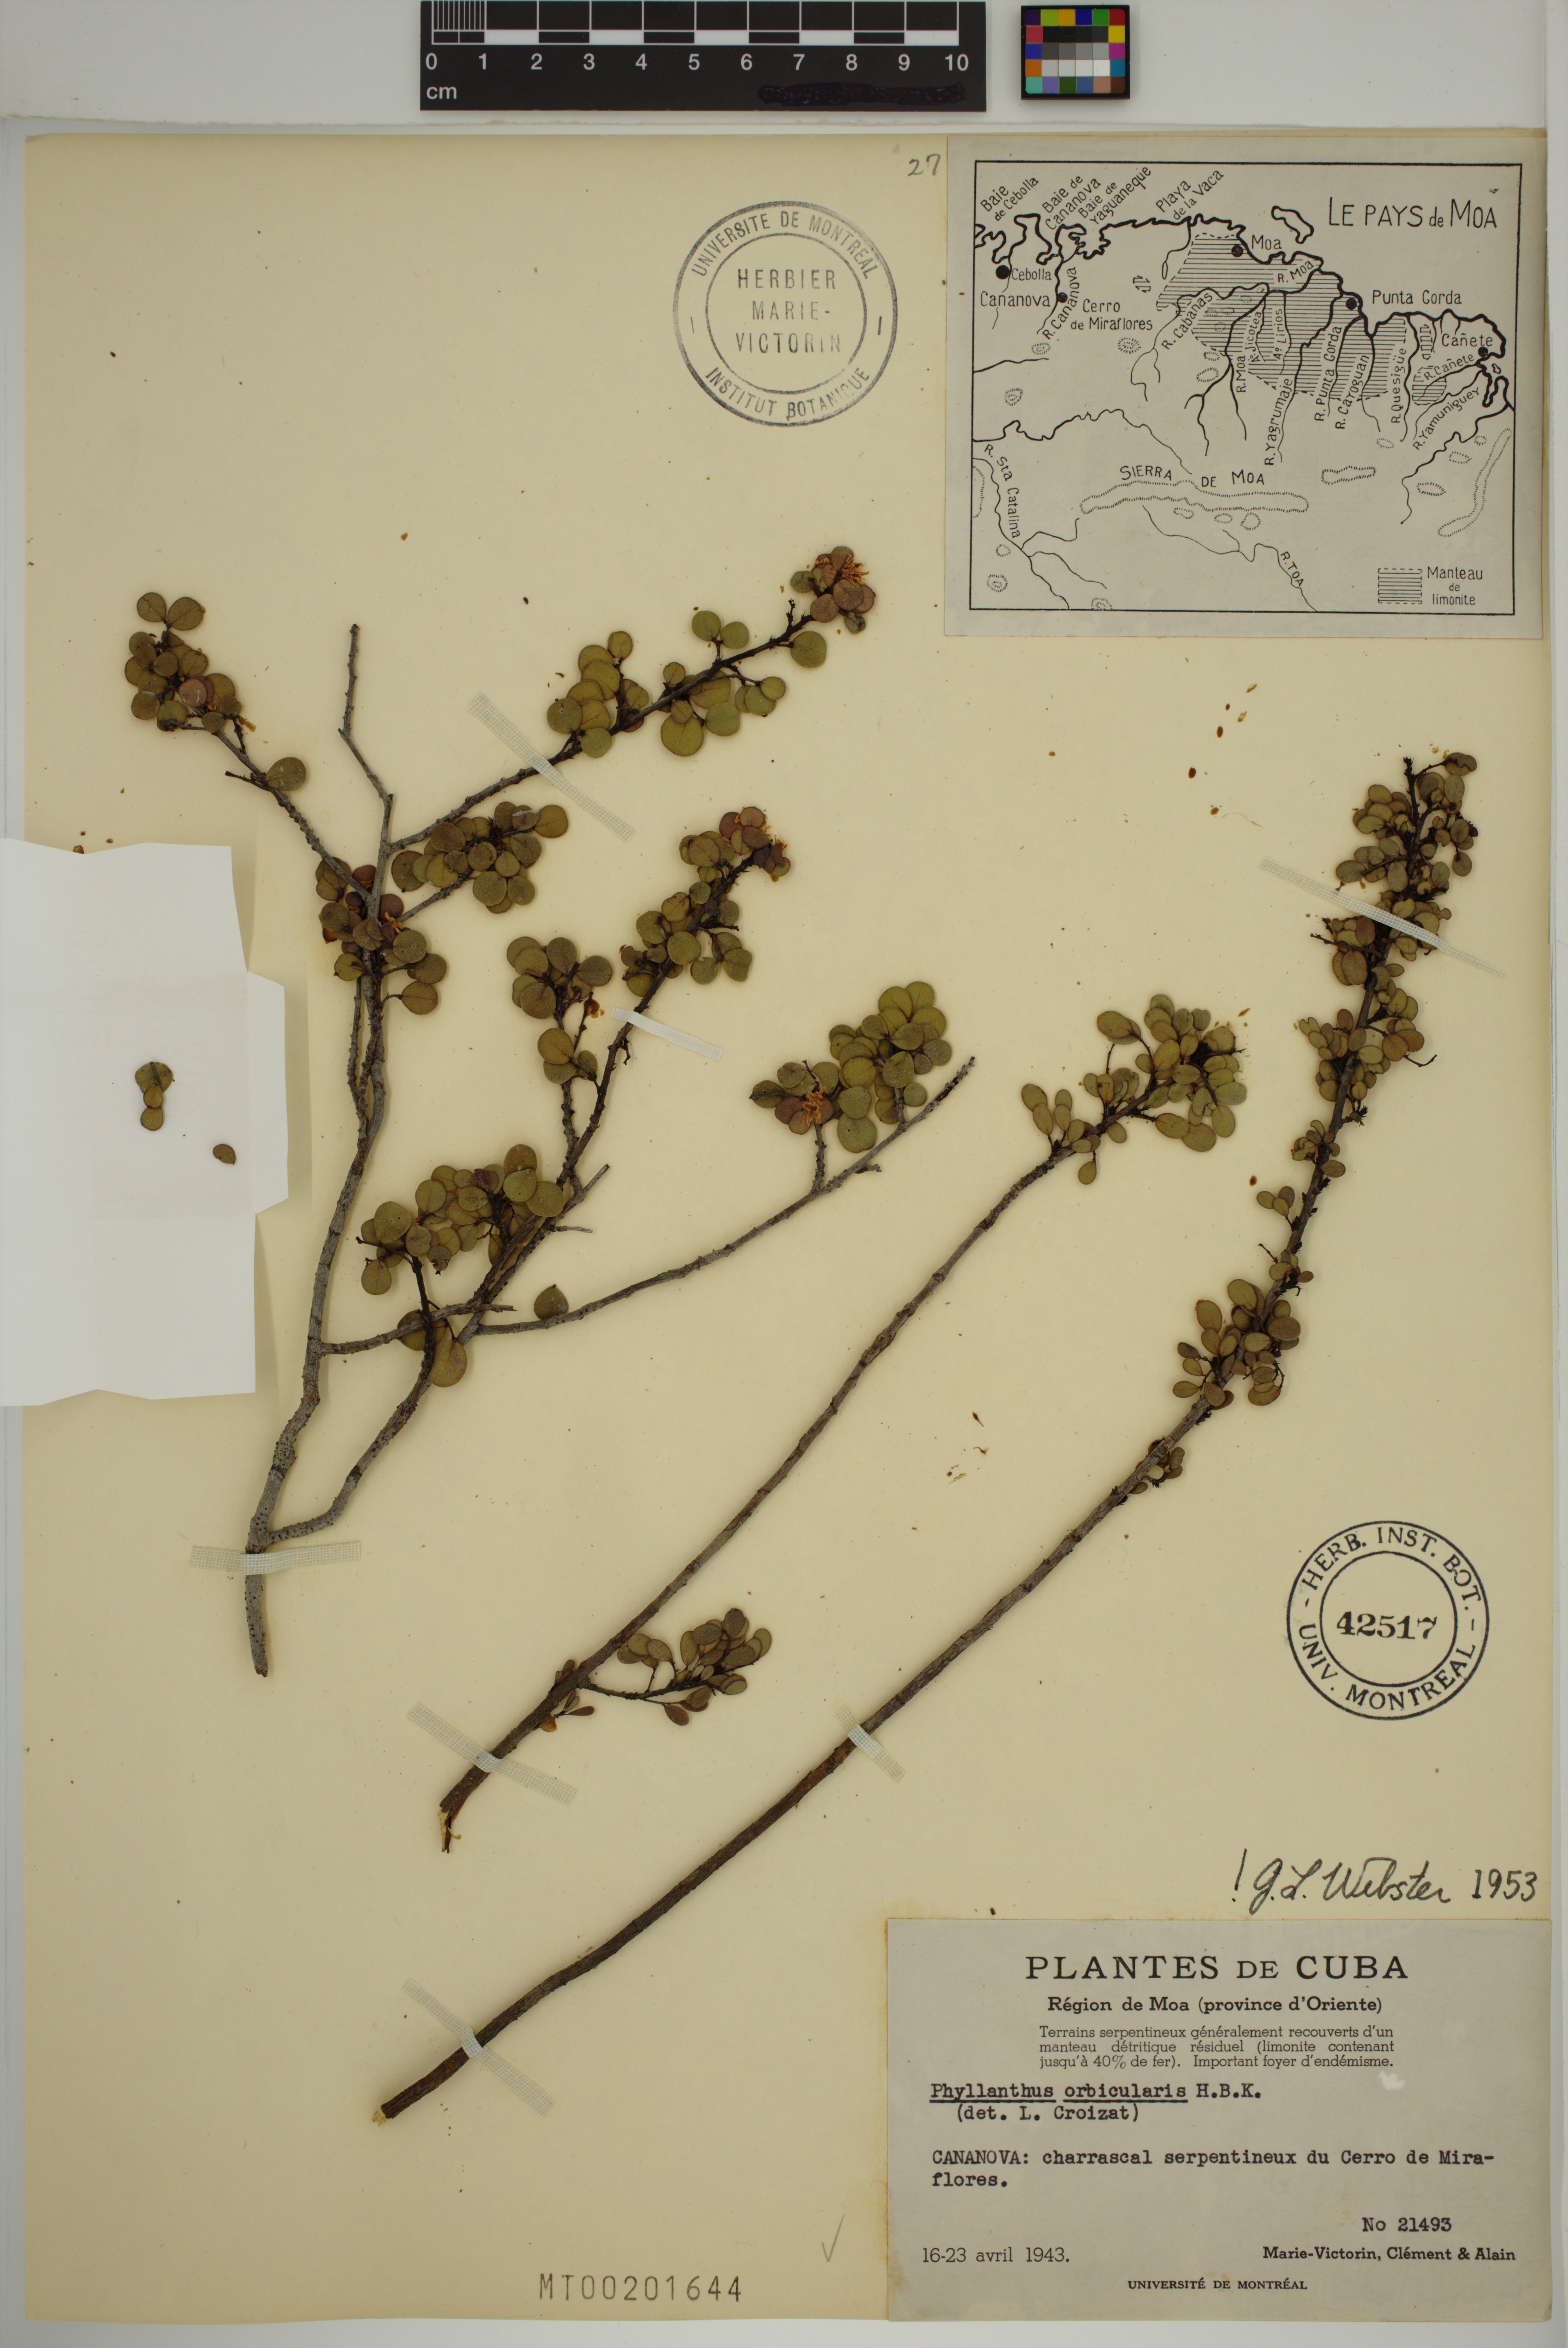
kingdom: Plantae
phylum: Tracheophyta
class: Magnoliopsida
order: Malpighiales
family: Phyllanthaceae
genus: Phyllanthus
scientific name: Phyllanthus orbicularis
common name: Wedge leaf-flower
